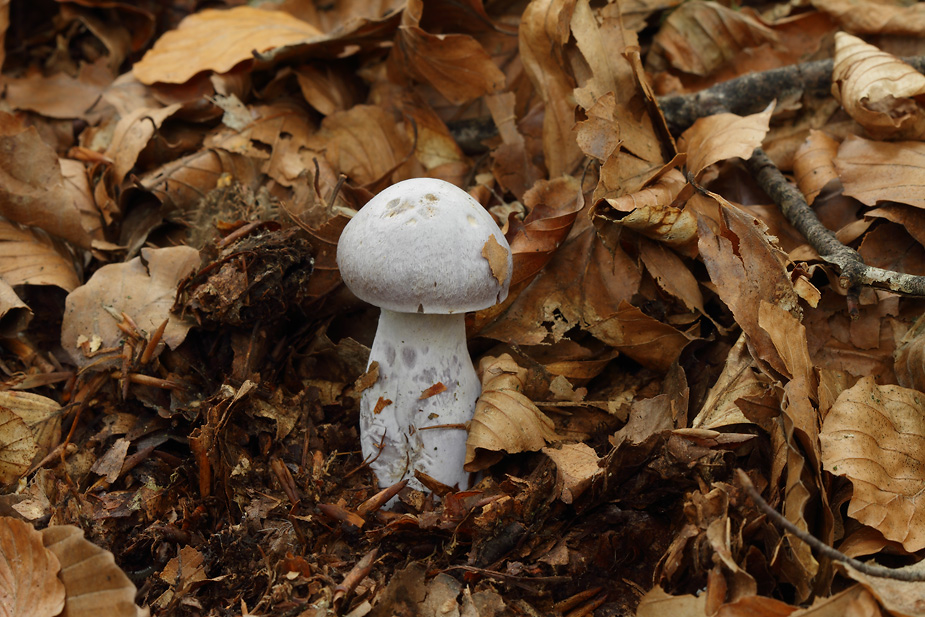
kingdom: Fungi
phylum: Basidiomycota
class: Agaricomycetes
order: Agaricales
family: Cortinariaceae
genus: Cortinarius
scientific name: Cortinarius alboviolaceus
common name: lysviolet slørhat
